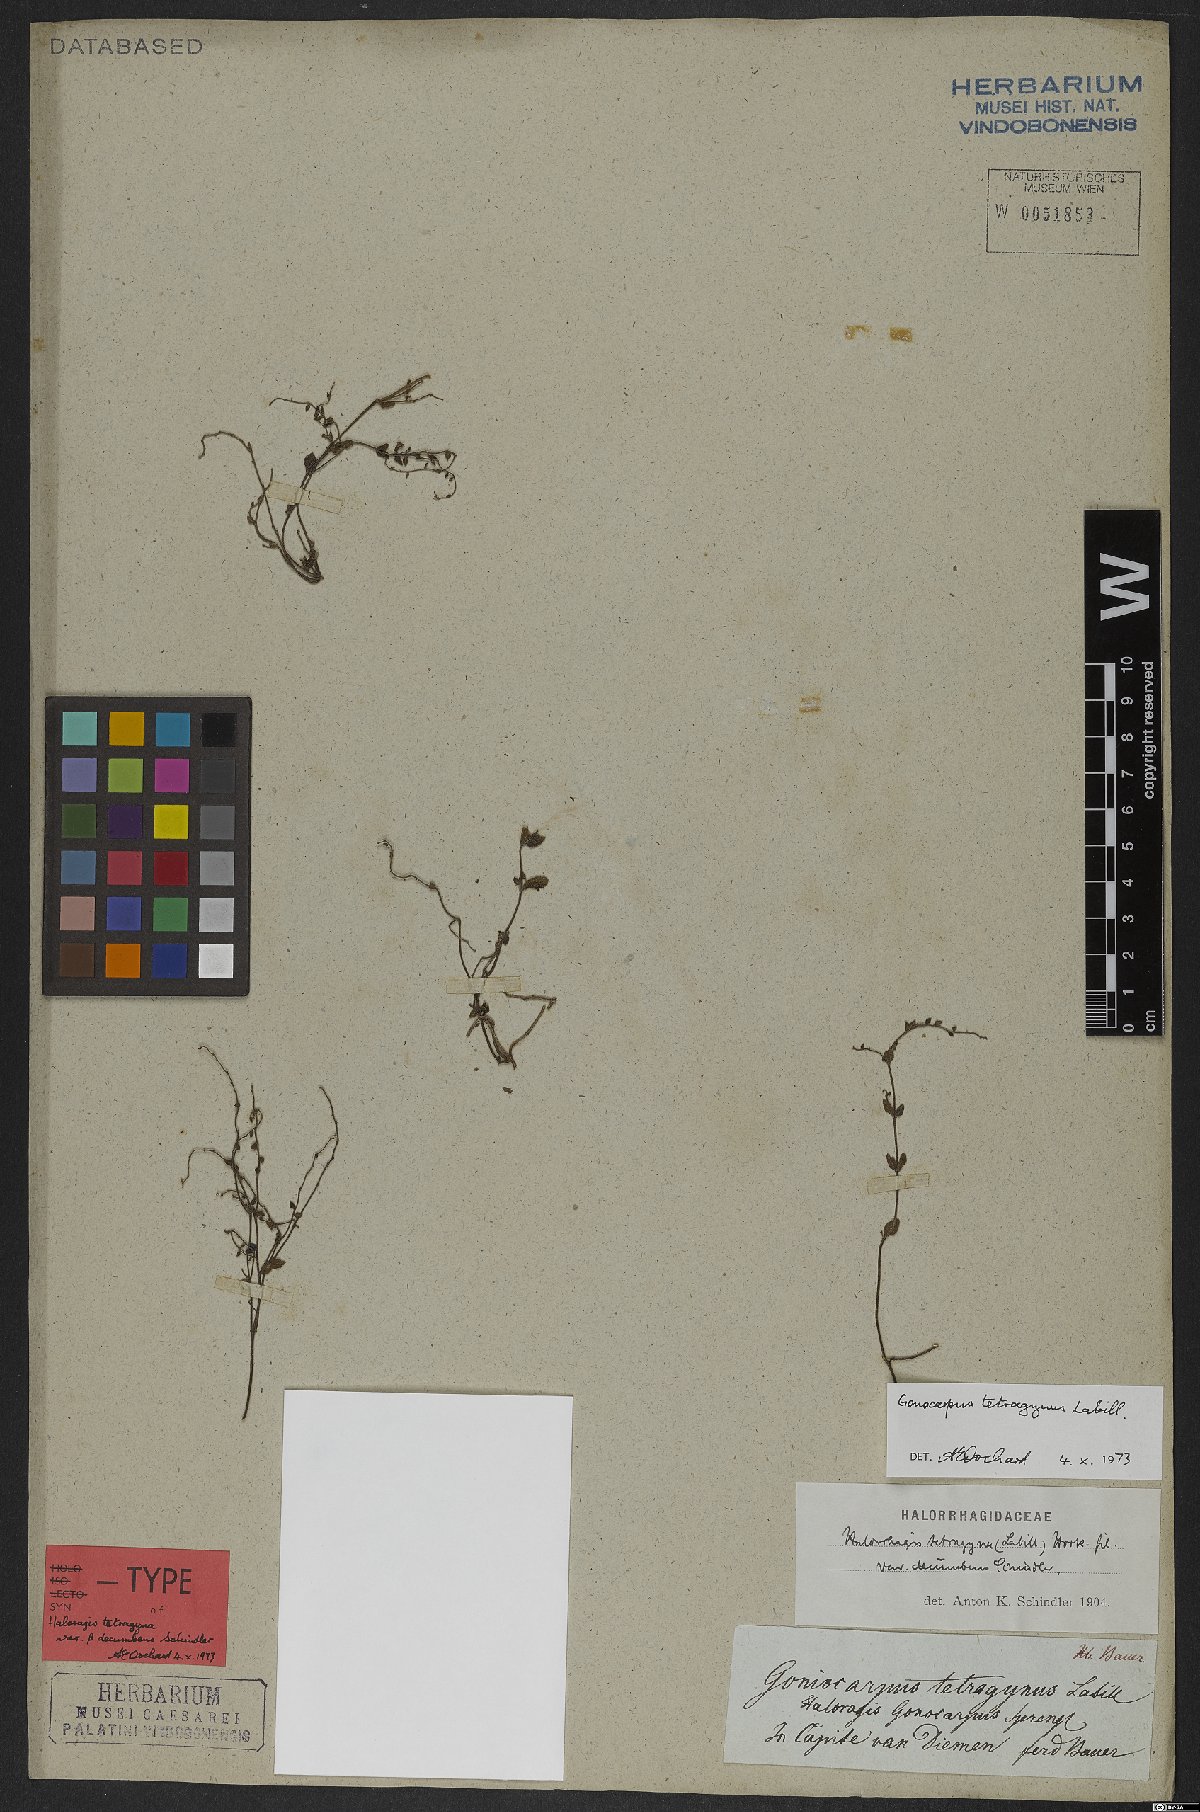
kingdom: Plantae
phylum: Tracheophyta
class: Magnoliopsida
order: Saxifragales
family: Haloragaceae
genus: Gonocarpus
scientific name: Gonocarpus tetragynus
